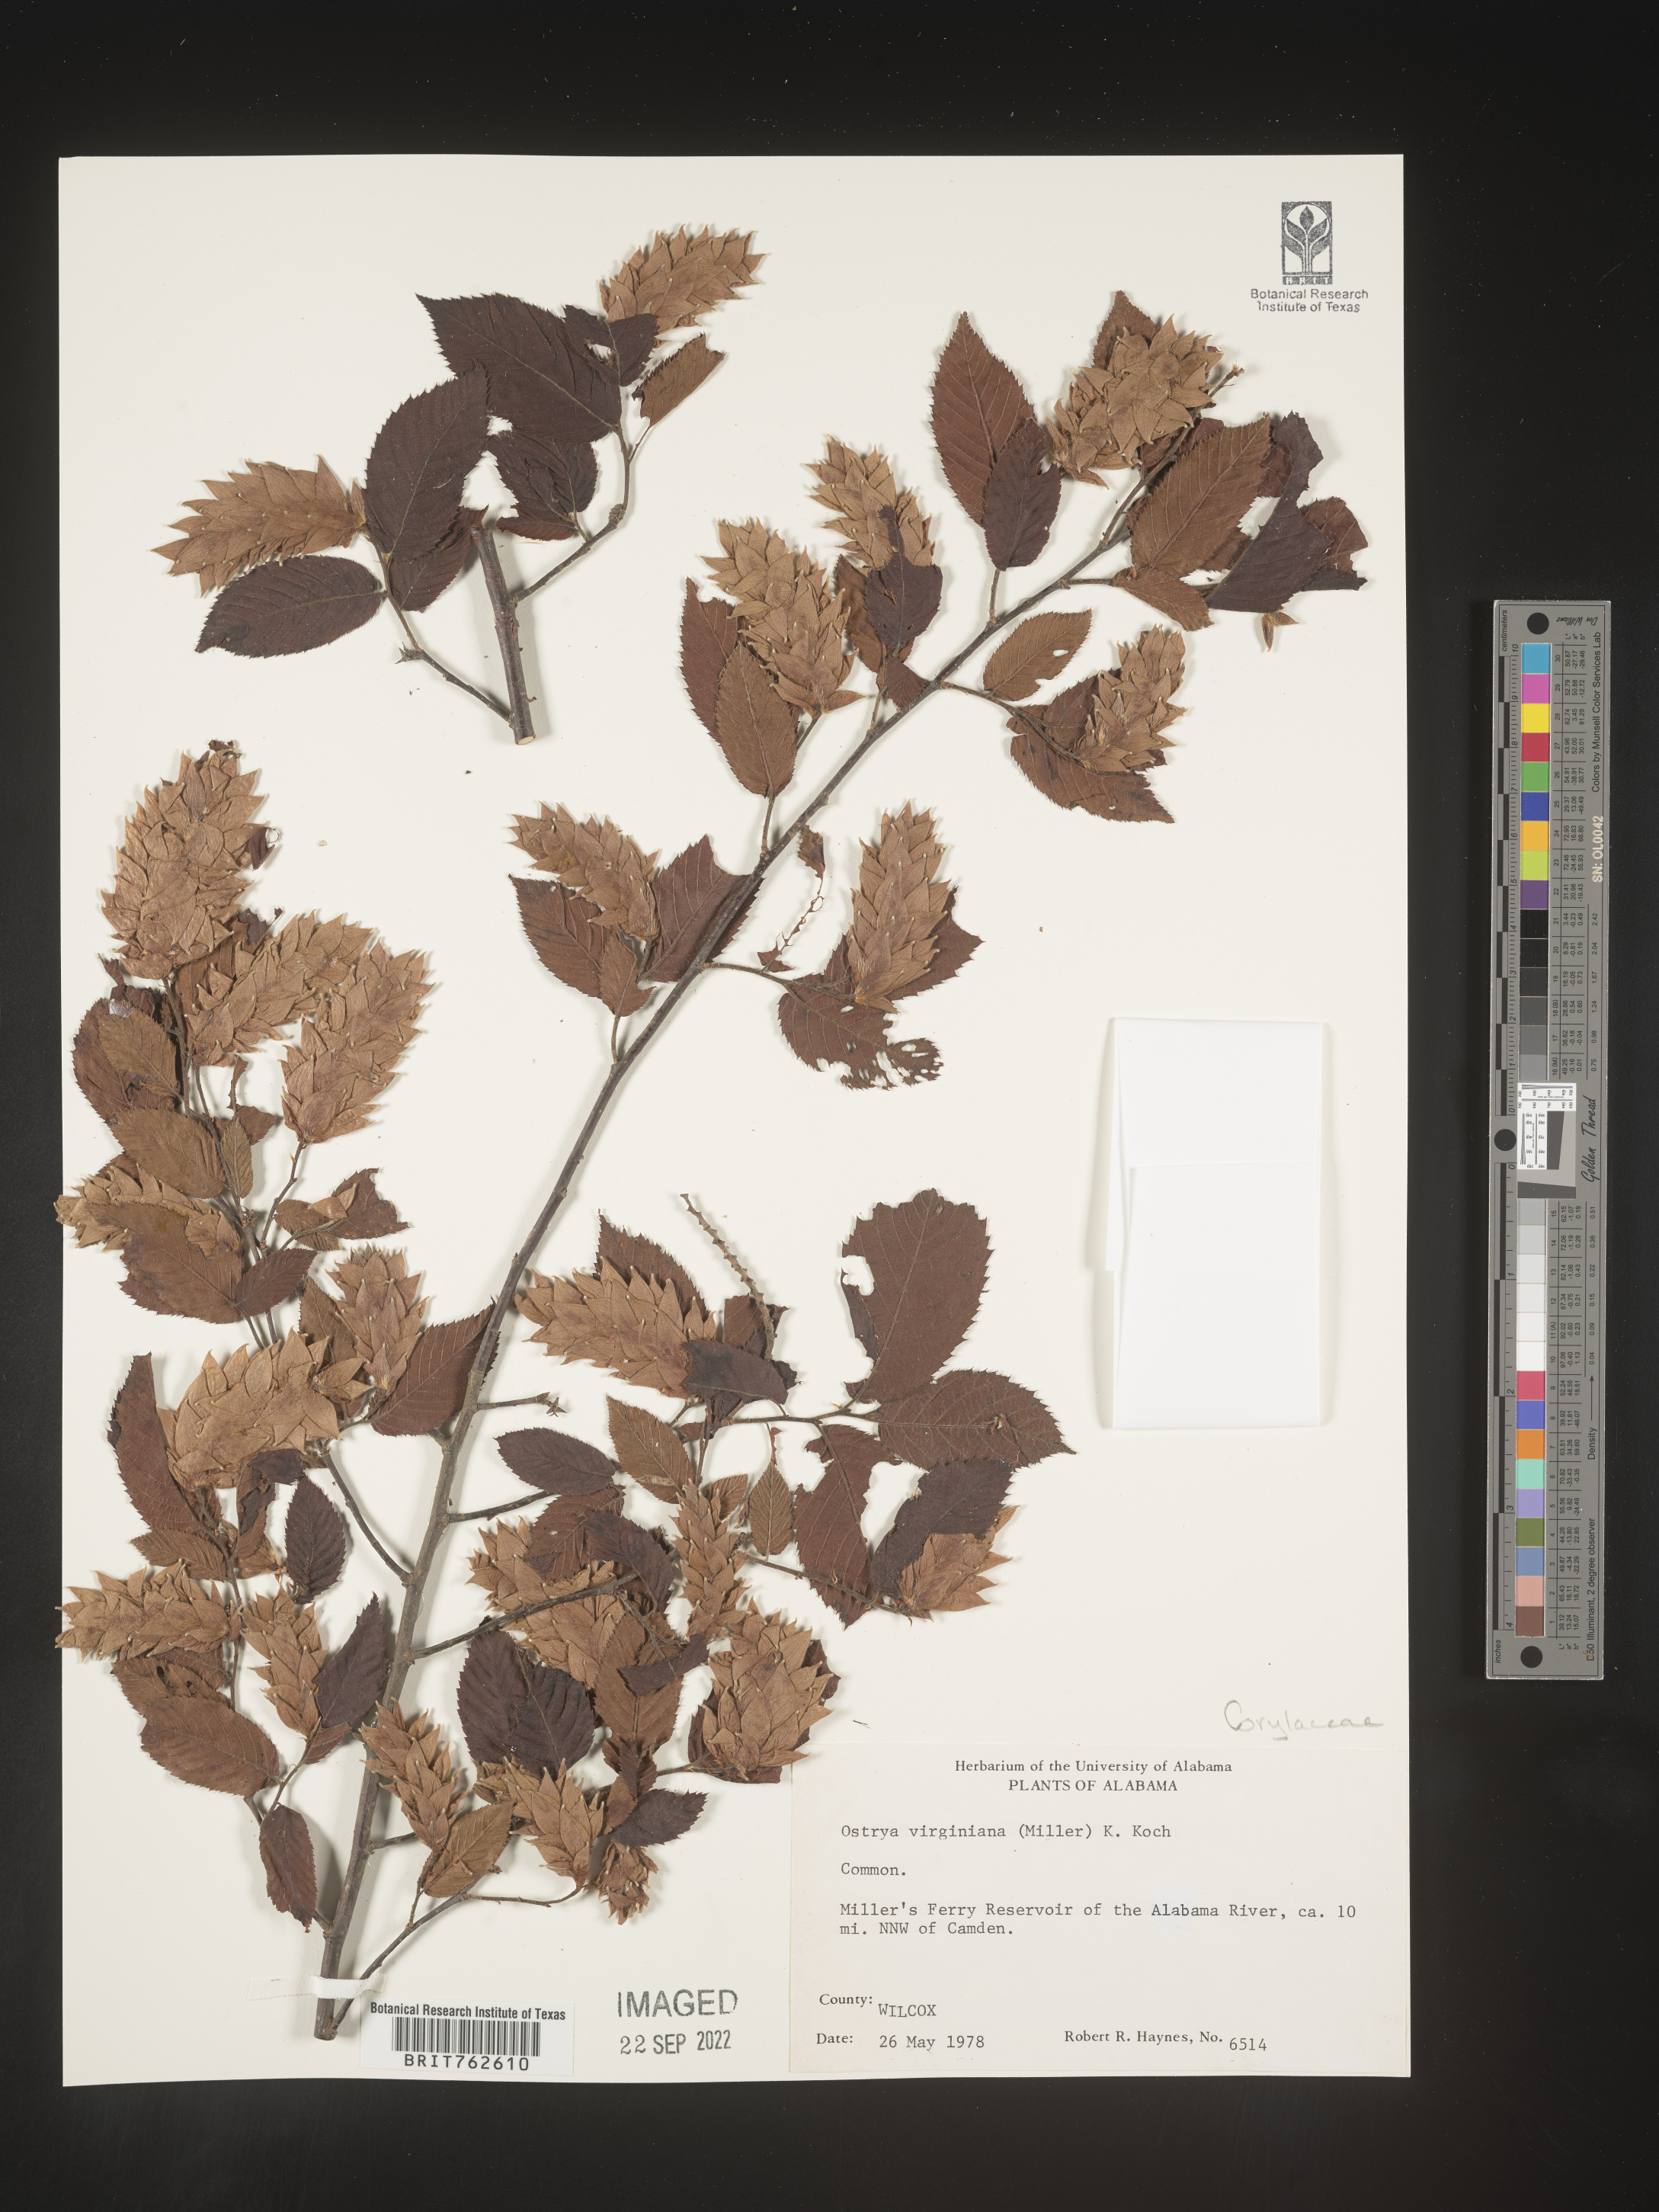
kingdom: Plantae
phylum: Tracheophyta
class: Magnoliopsida
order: Fagales
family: Betulaceae
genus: Ostrya
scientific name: Ostrya virginiana
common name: Ironwood
